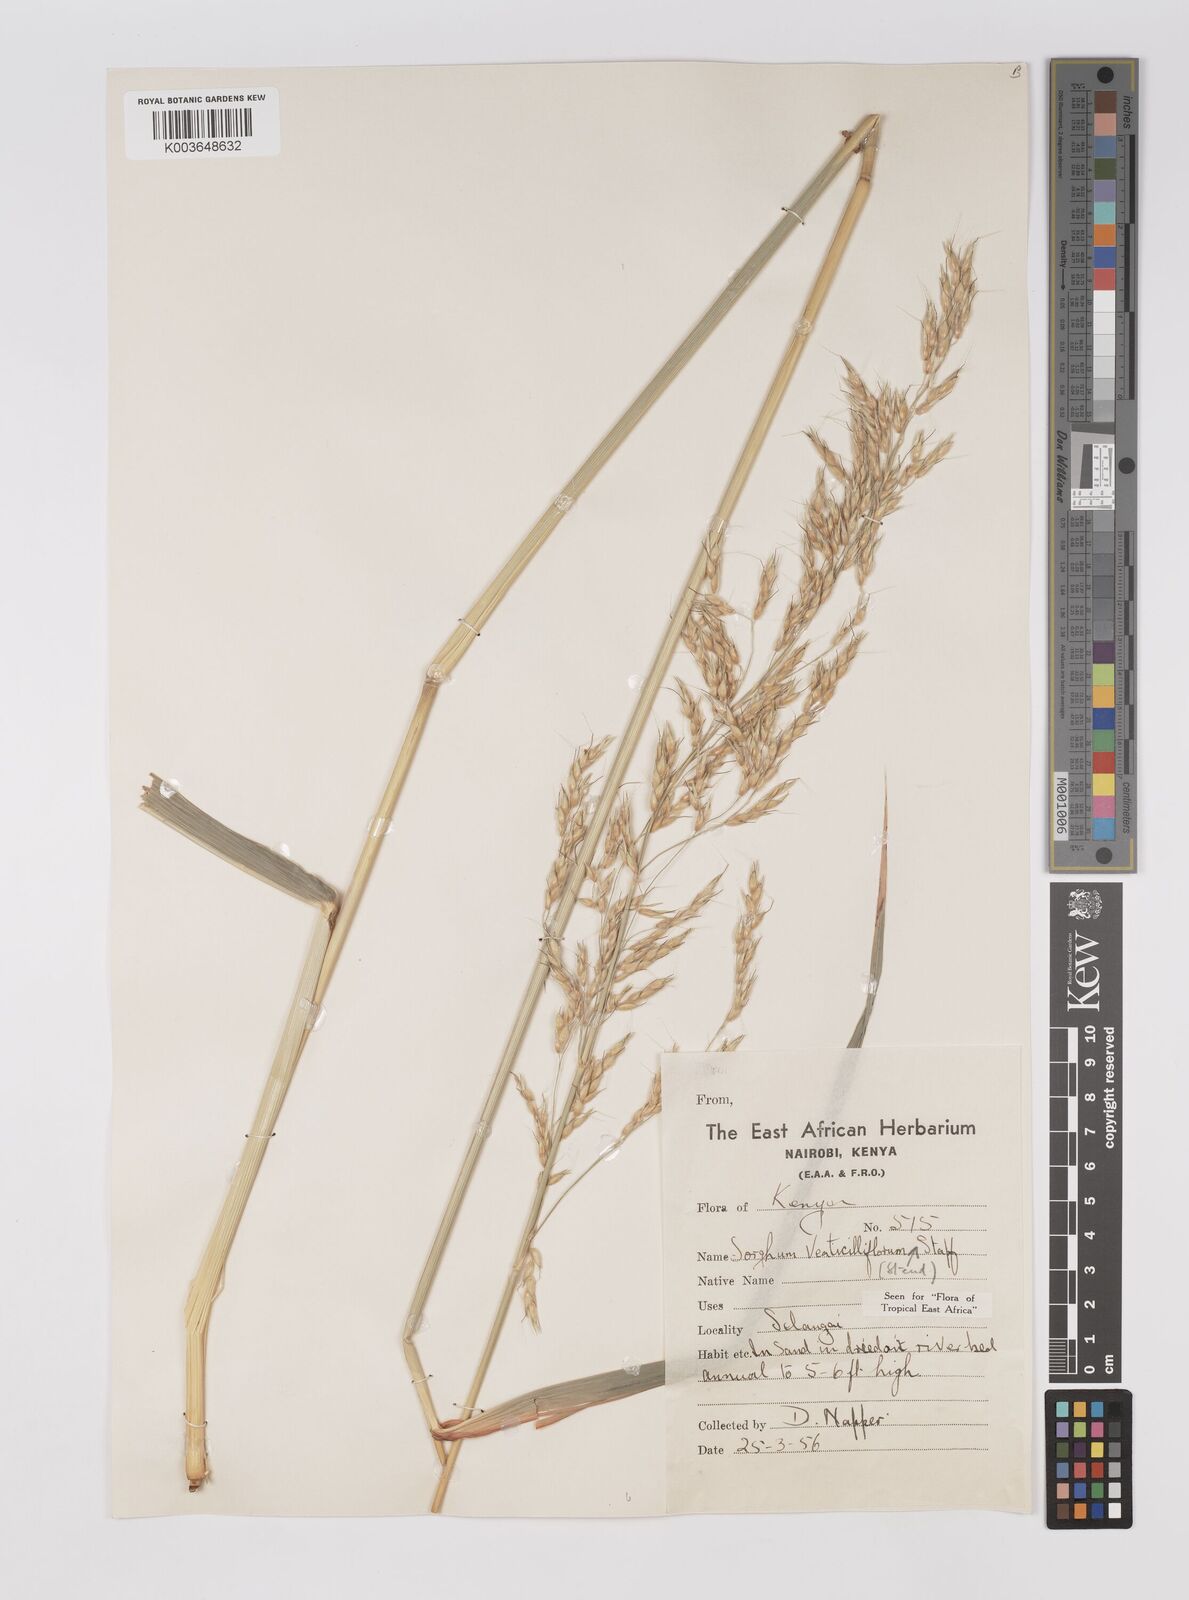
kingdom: Plantae
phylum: Tracheophyta
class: Liliopsida
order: Poales
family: Poaceae
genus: Sorghum
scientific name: Sorghum arundinaceum
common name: Sorghum
